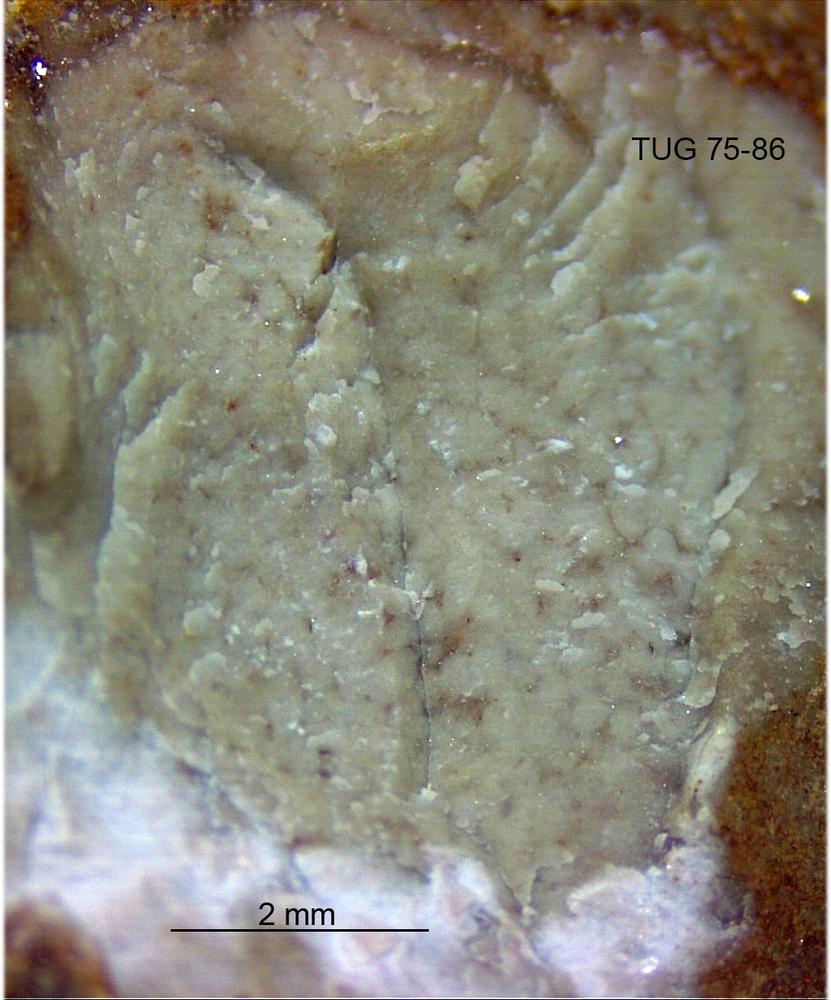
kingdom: Animalia
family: Coprulidae
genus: Coprulus
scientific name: Coprulus
